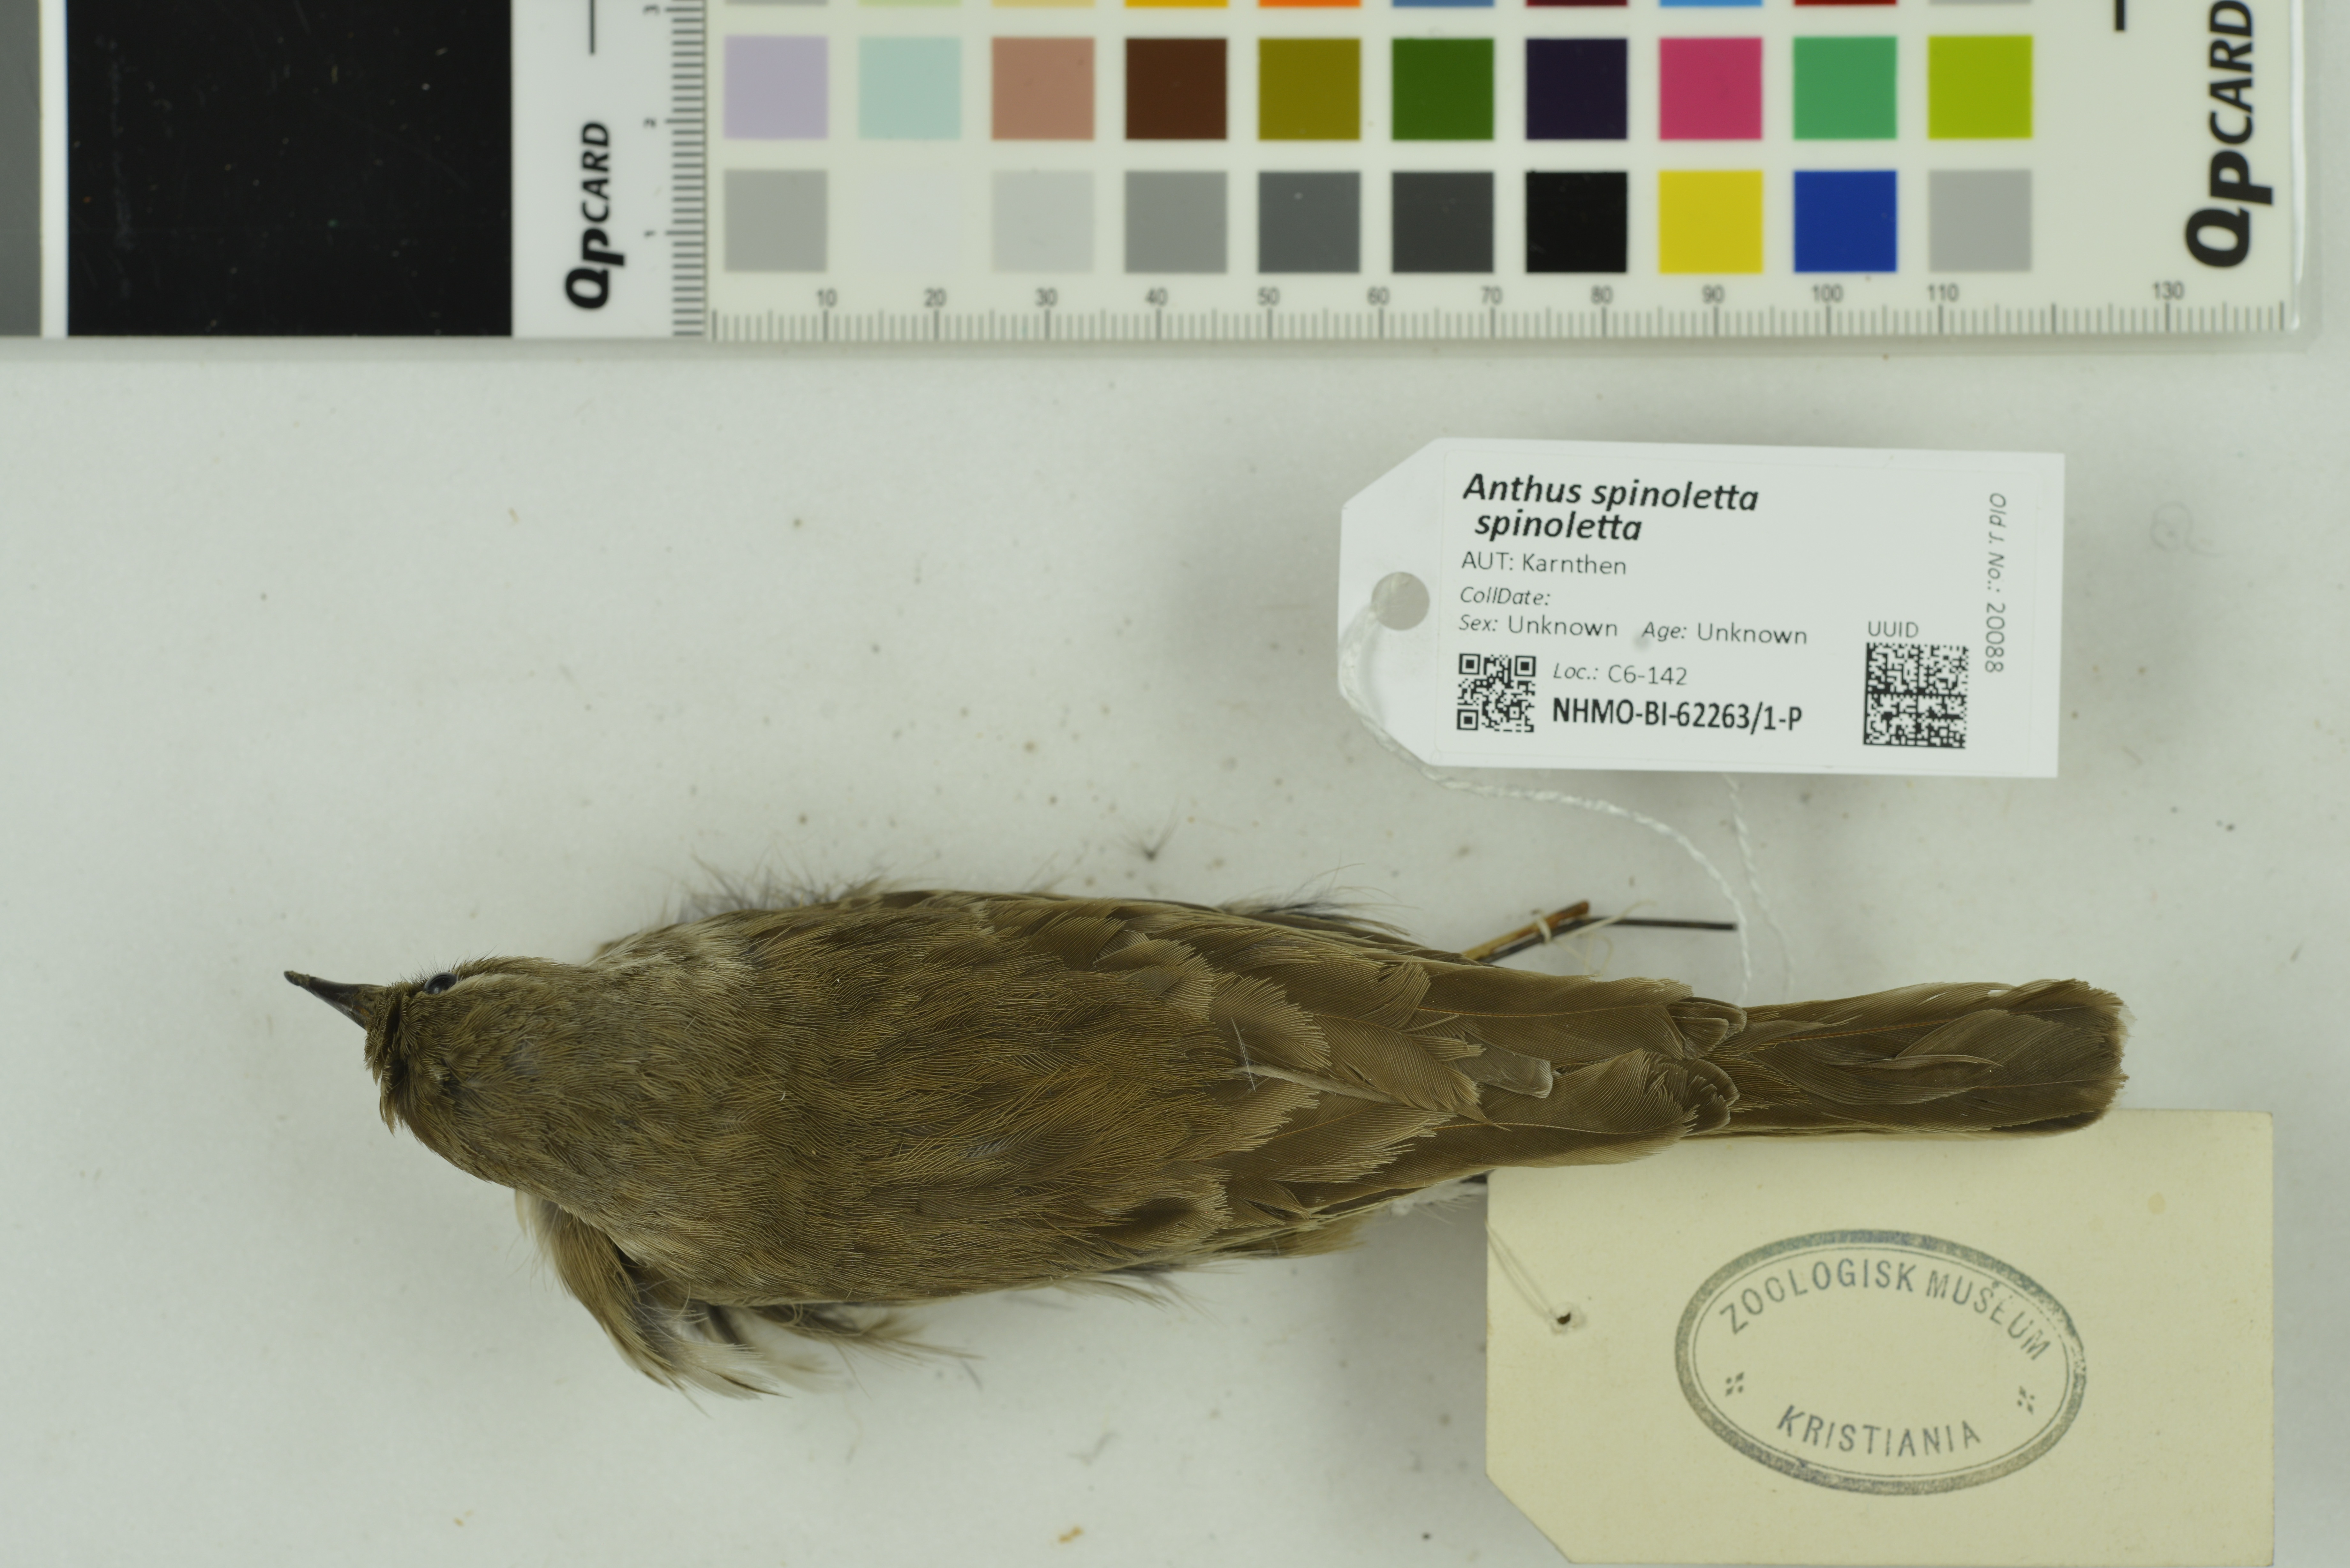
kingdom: Animalia
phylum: Chordata
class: Aves
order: Passeriformes
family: Motacillidae
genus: Anthus
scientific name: Anthus spinoletta
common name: Water pipit
